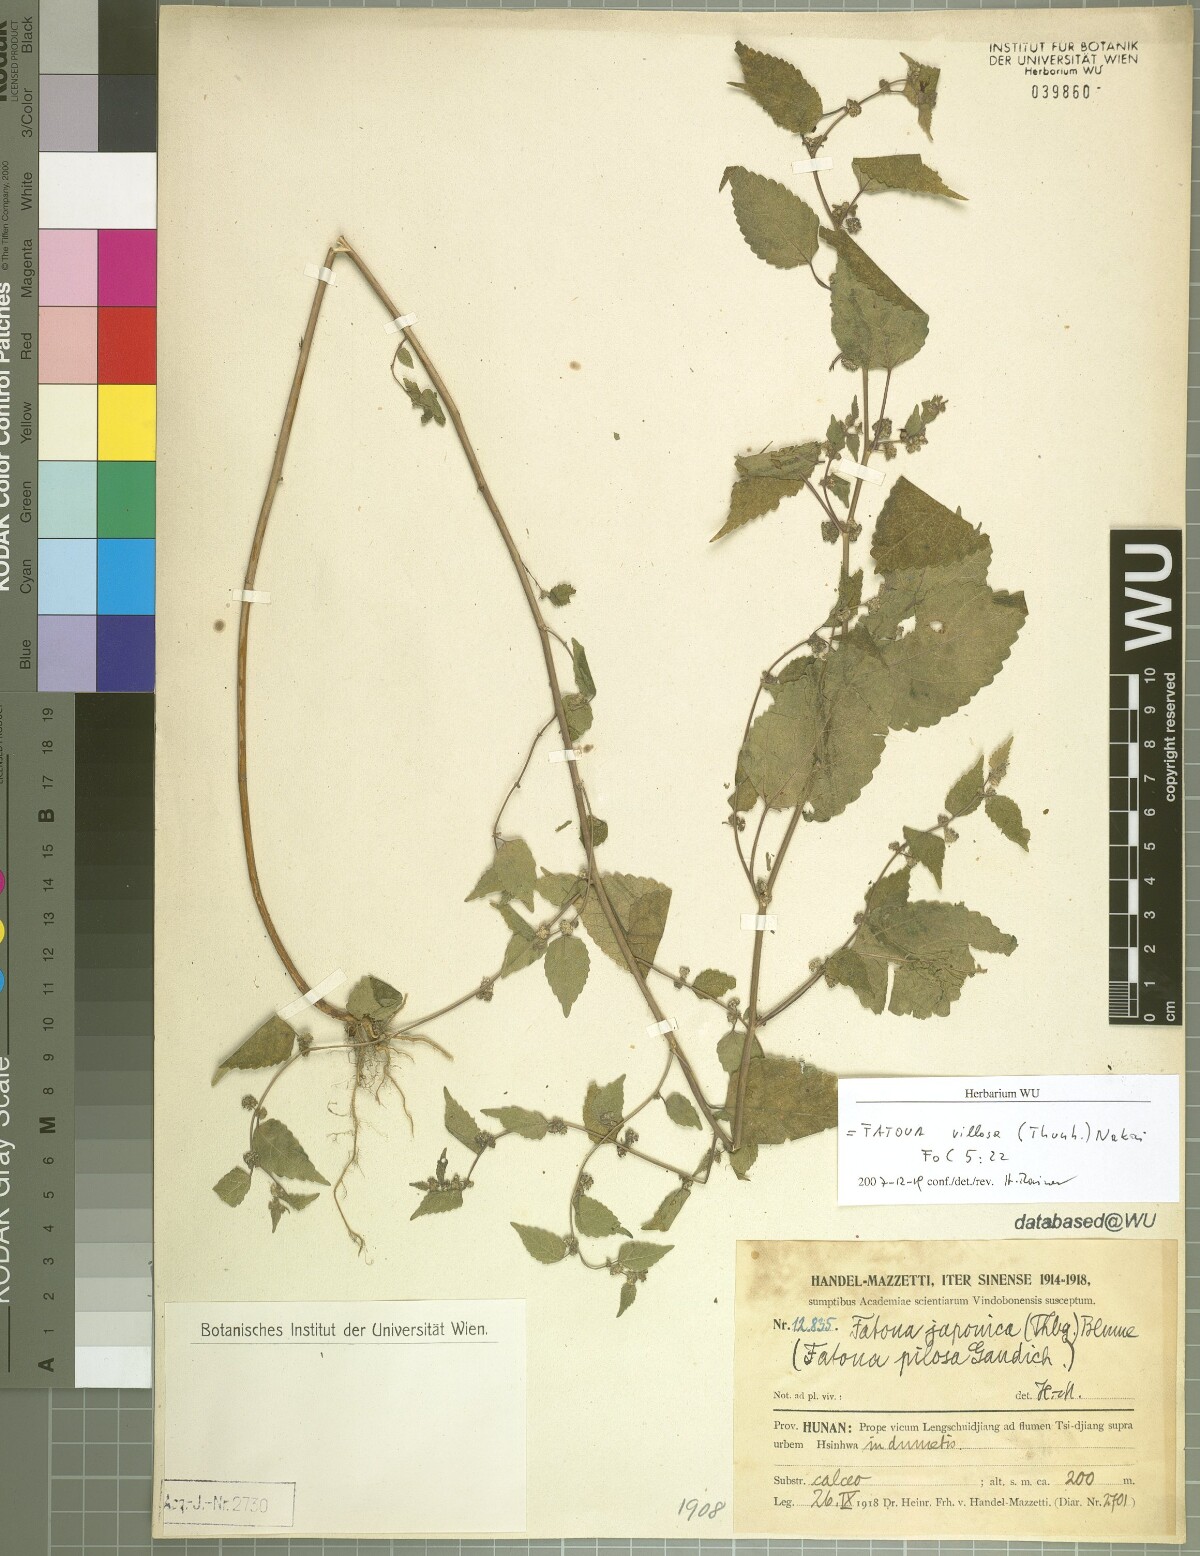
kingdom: Plantae
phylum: Tracheophyta
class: Magnoliopsida
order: Rosales
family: Moraceae
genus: Fatoua
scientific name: Fatoua villosa
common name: Hairy crabweed
